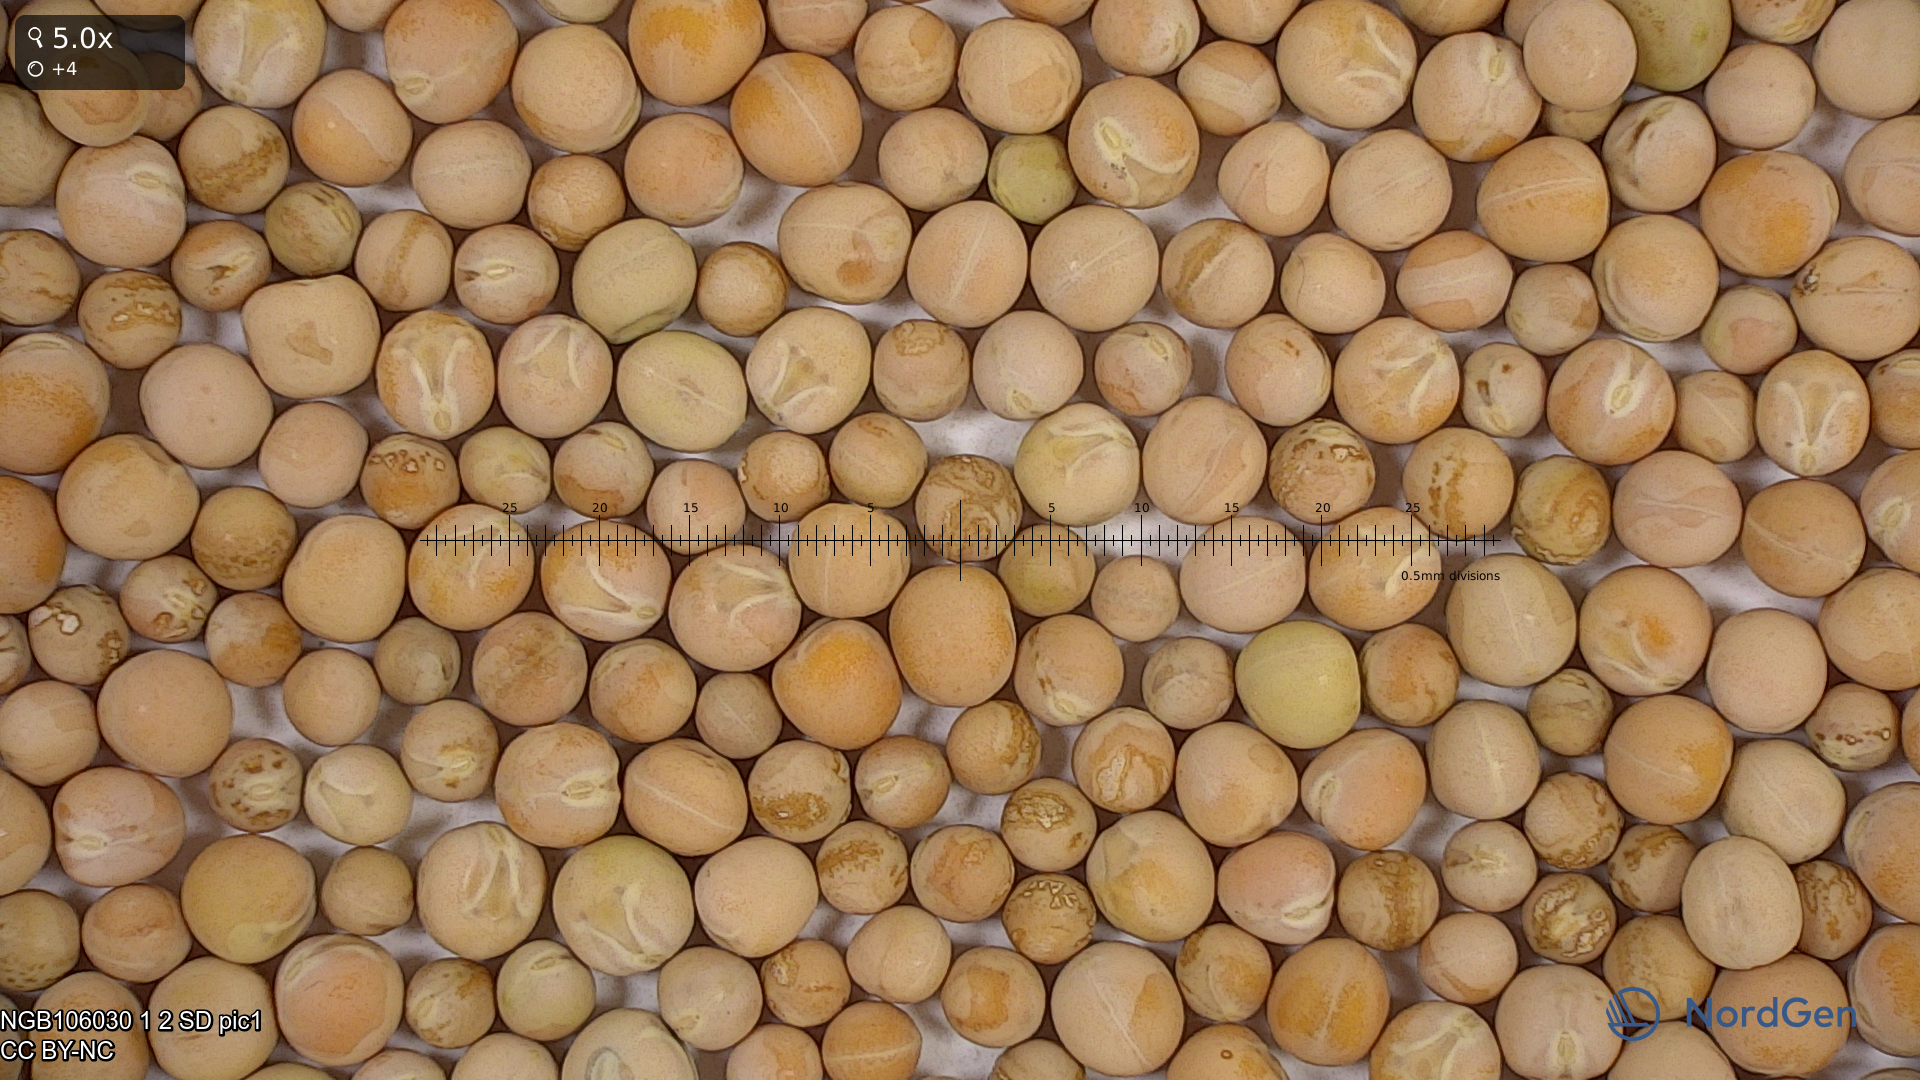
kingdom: Plantae
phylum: Tracheophyta
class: Magnoliopsida
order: Fabales
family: Fabaceae
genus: Lathyrus
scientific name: Lathyrus oleraceus
